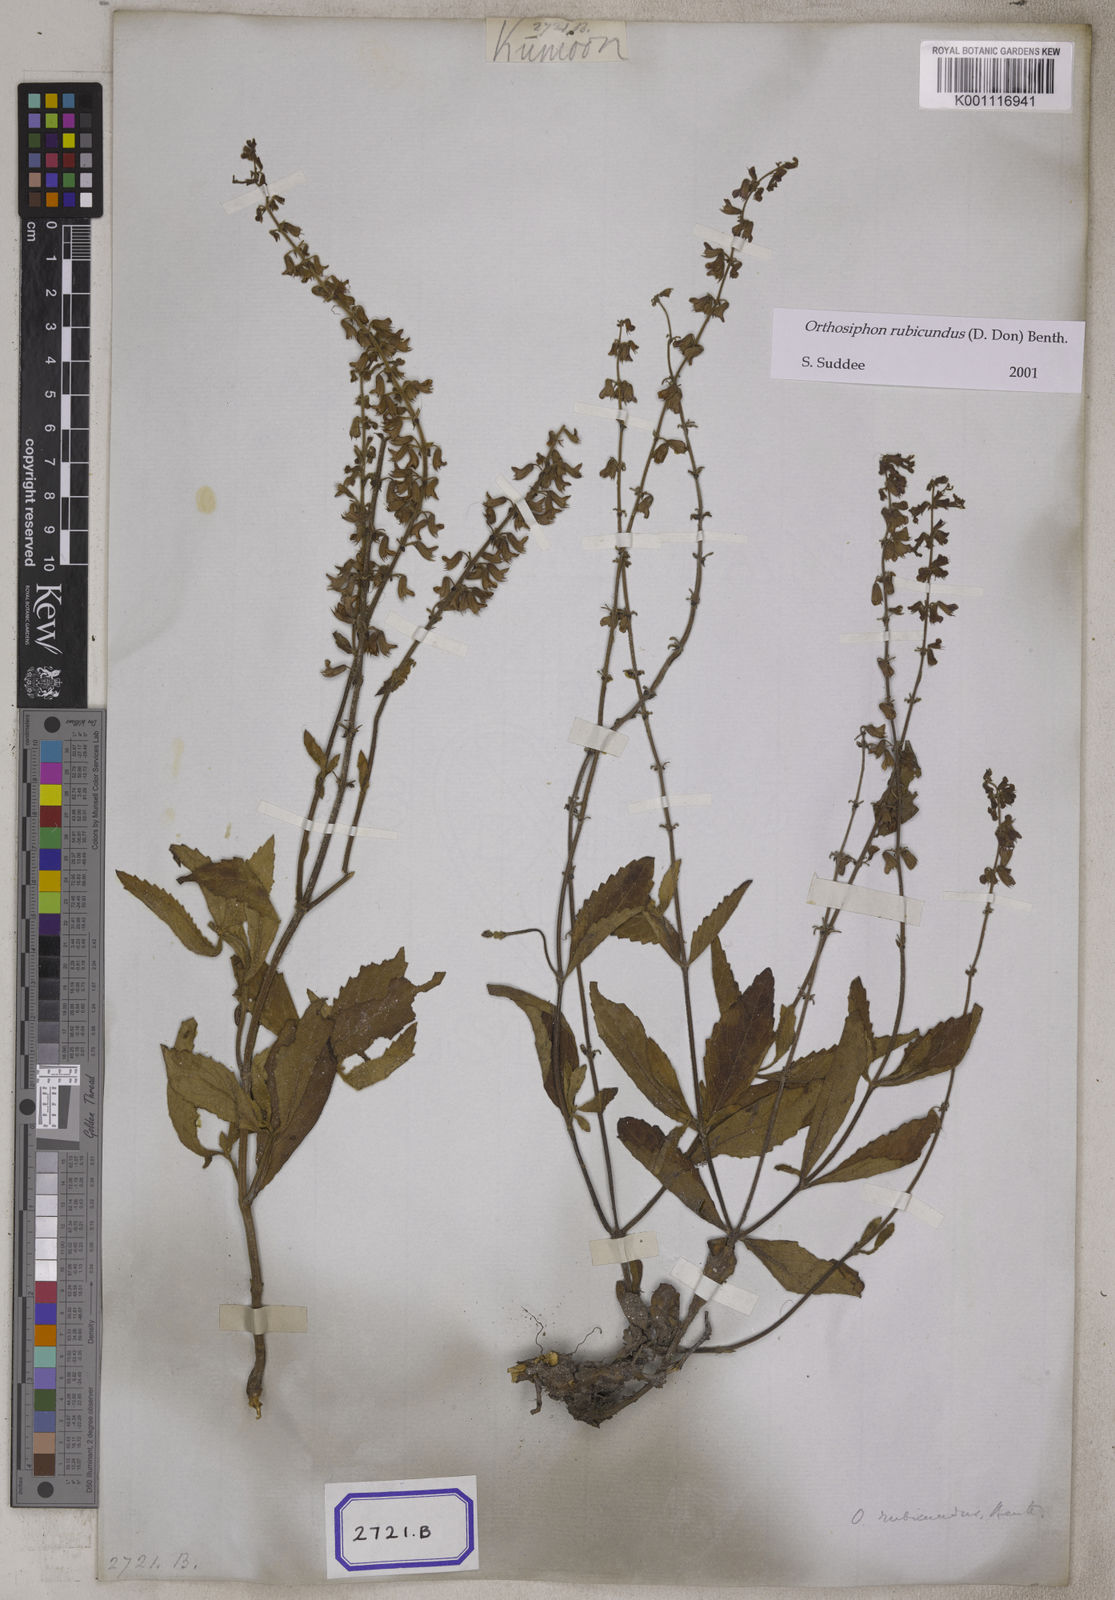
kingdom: Plantae
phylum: Tracheophyta
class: Magnoliopsida
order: Lamiales
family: Lamiaceae
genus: Orthosiphon
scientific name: Orthosiphon rubicundus
